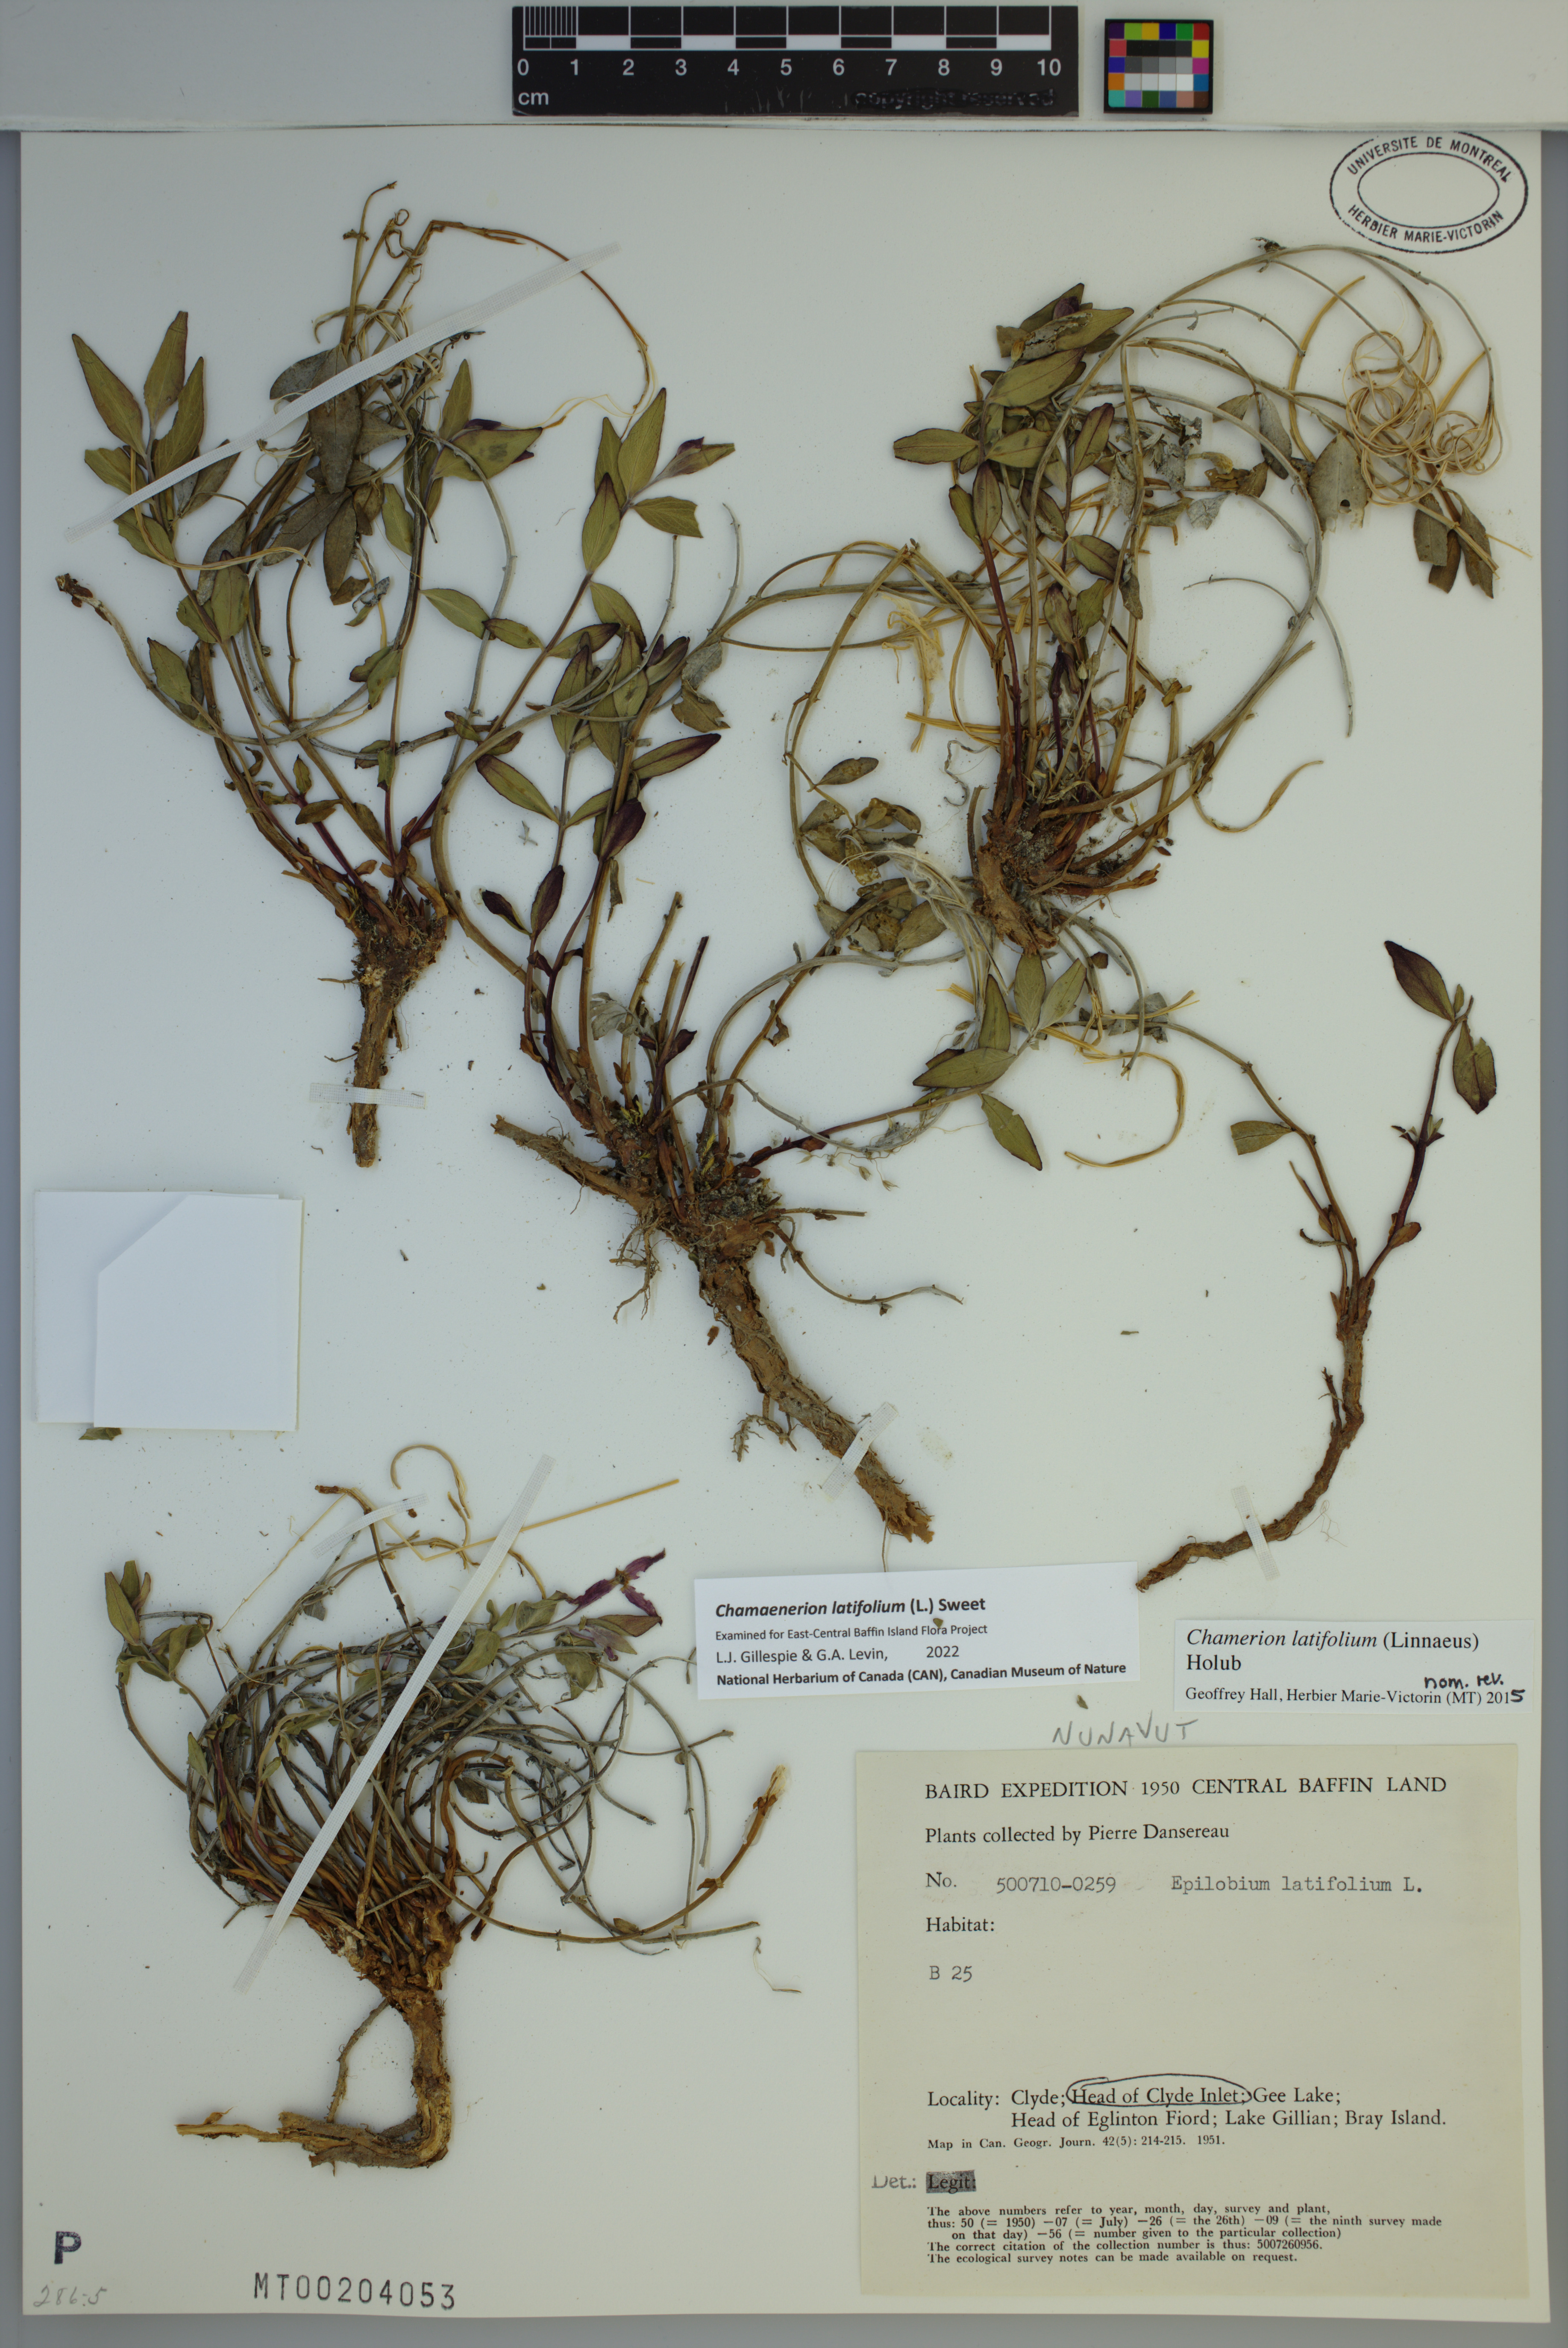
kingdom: Plantae
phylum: Tracheophyta
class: Magnoliopsida
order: Myrtales
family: Onagraceae
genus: Chamaenerion
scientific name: Chamaenerion latifolium
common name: Dwarf fireweed
